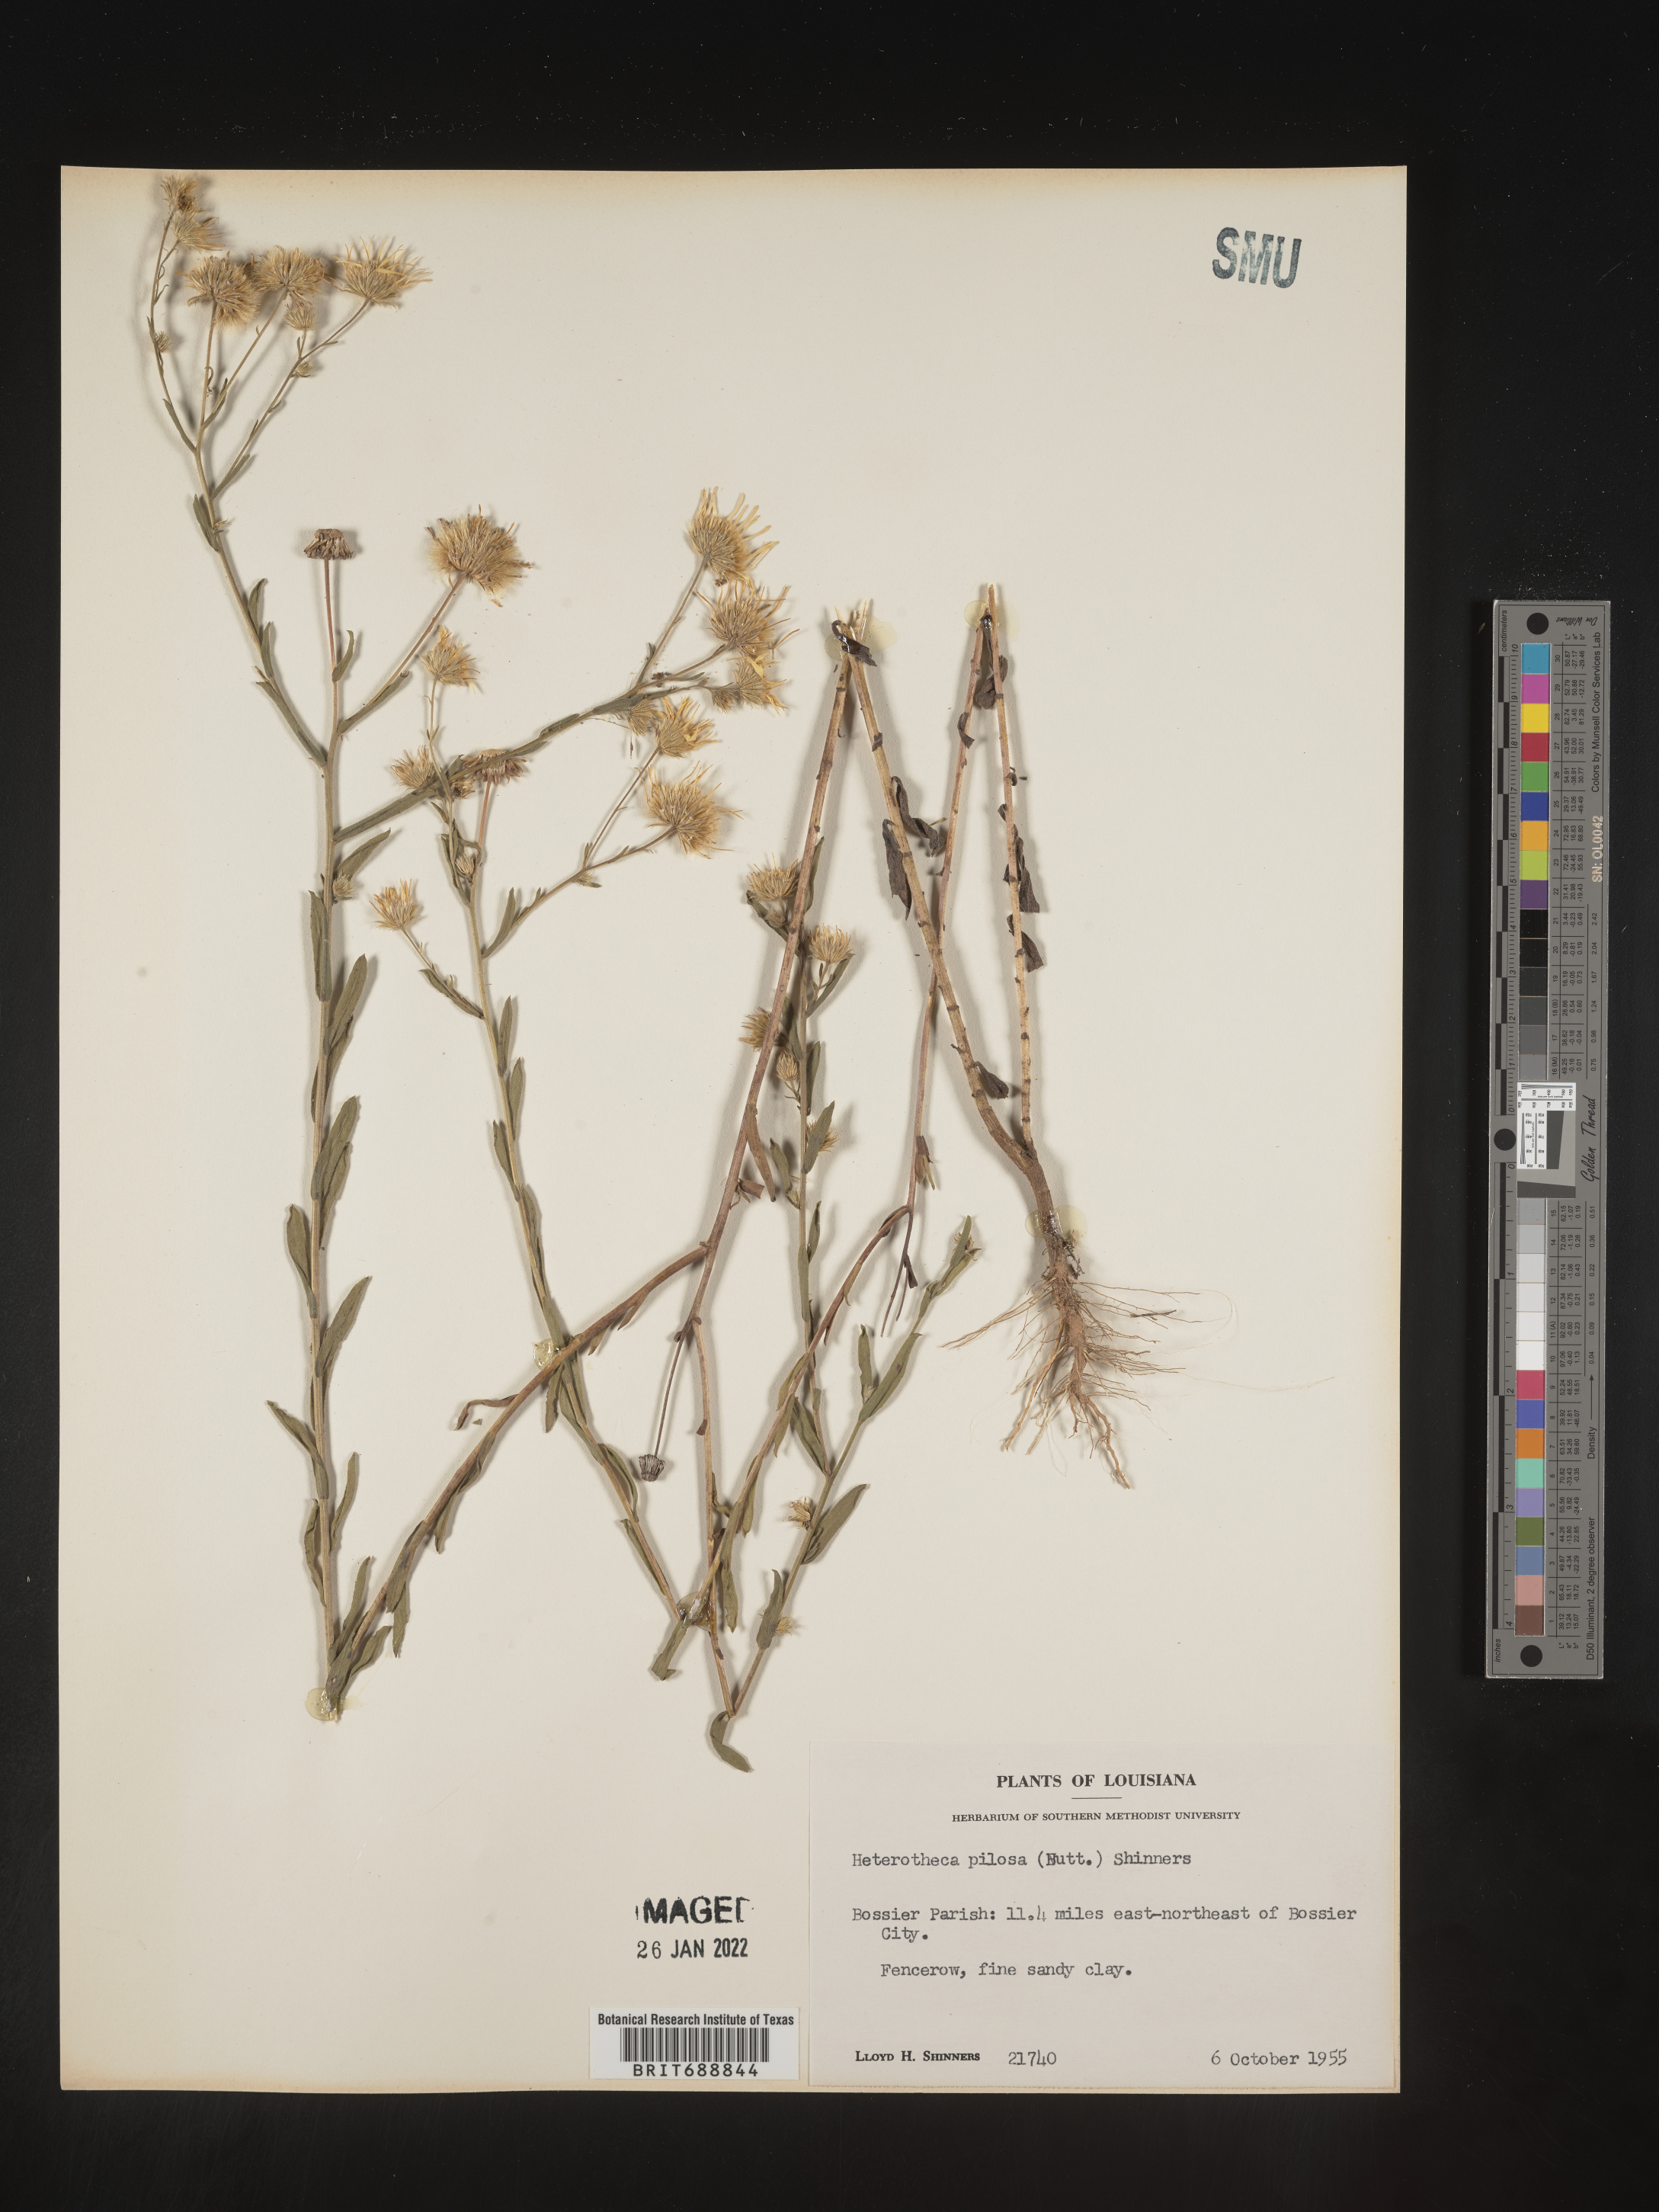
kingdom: Plantae
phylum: Tracheophyta
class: Magnoliopsida
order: Asterales
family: Asteraceae
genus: Bradburia
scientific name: Bradburia pilosa
